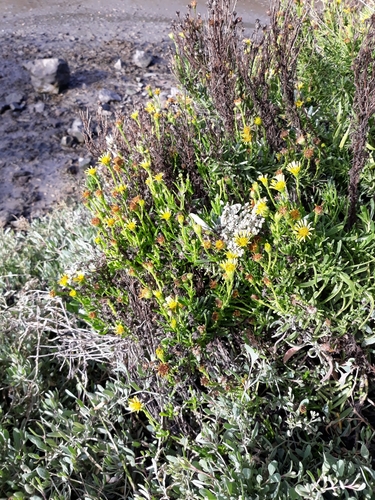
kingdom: Plantae
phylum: Tracheophyta
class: Magnoliopsida
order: Asterales
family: Asteraceae
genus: Limbarda
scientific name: Limbarda crithmoides
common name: Golden samphire
